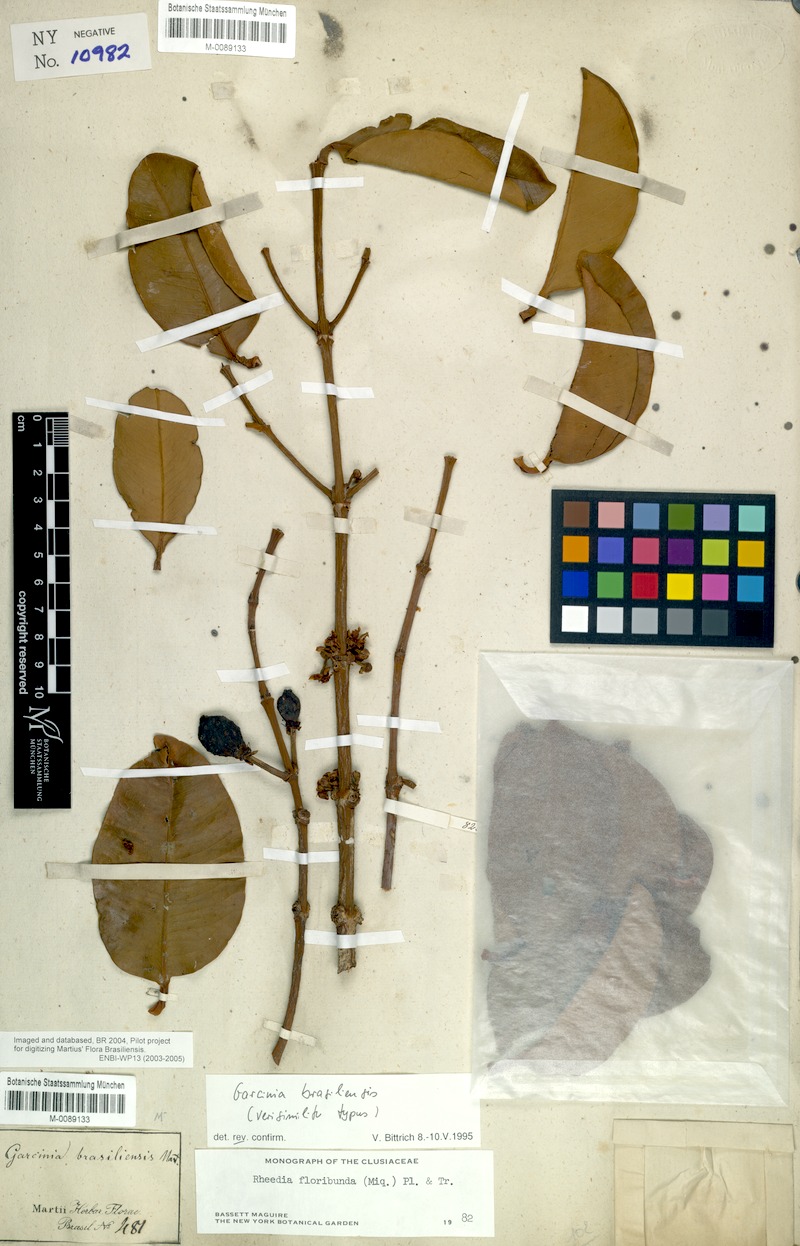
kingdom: Plantae
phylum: Tracheophyta
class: Magnoliopsida
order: Malpighiales
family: Clusiaceae
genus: Garcinia
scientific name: Garcinia brasiliensis
